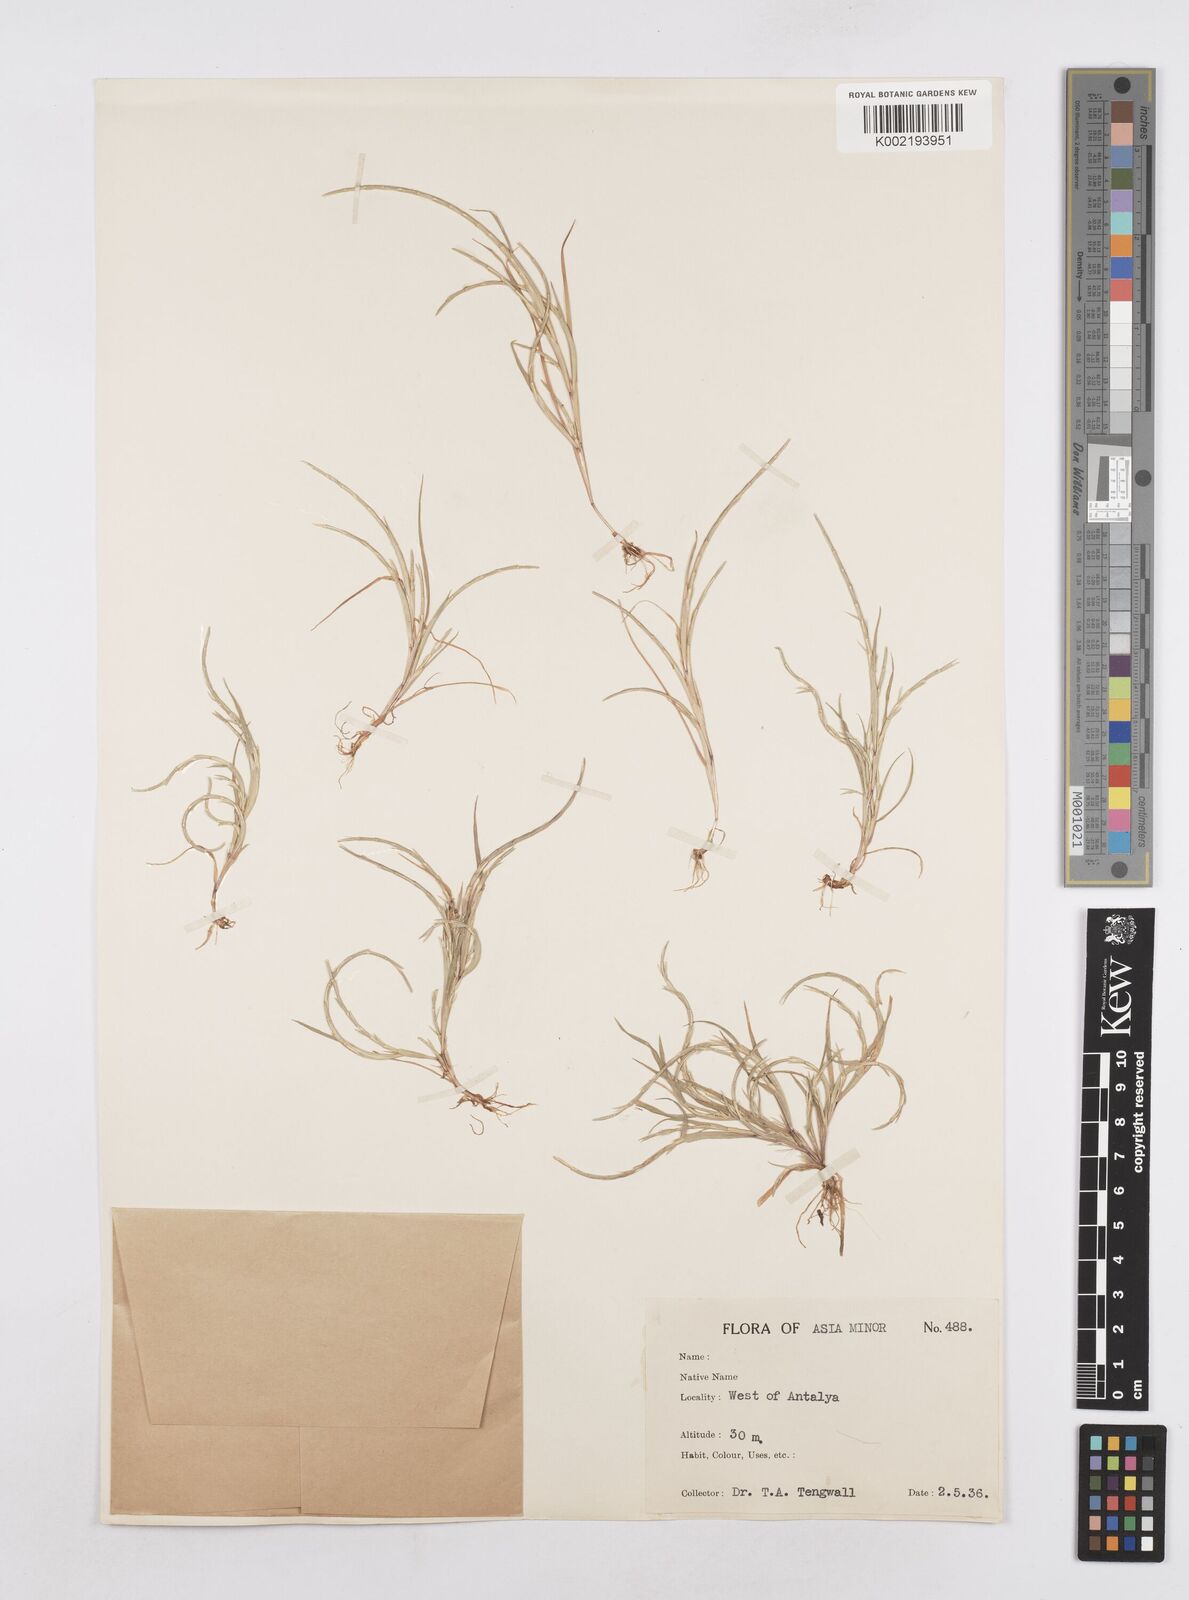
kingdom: Plantae
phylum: Tracheophyta
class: Liliopsida
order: Poales
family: Poaceae
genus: Parapholis
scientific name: Parapholis incurva
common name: Curved sicklegrass
